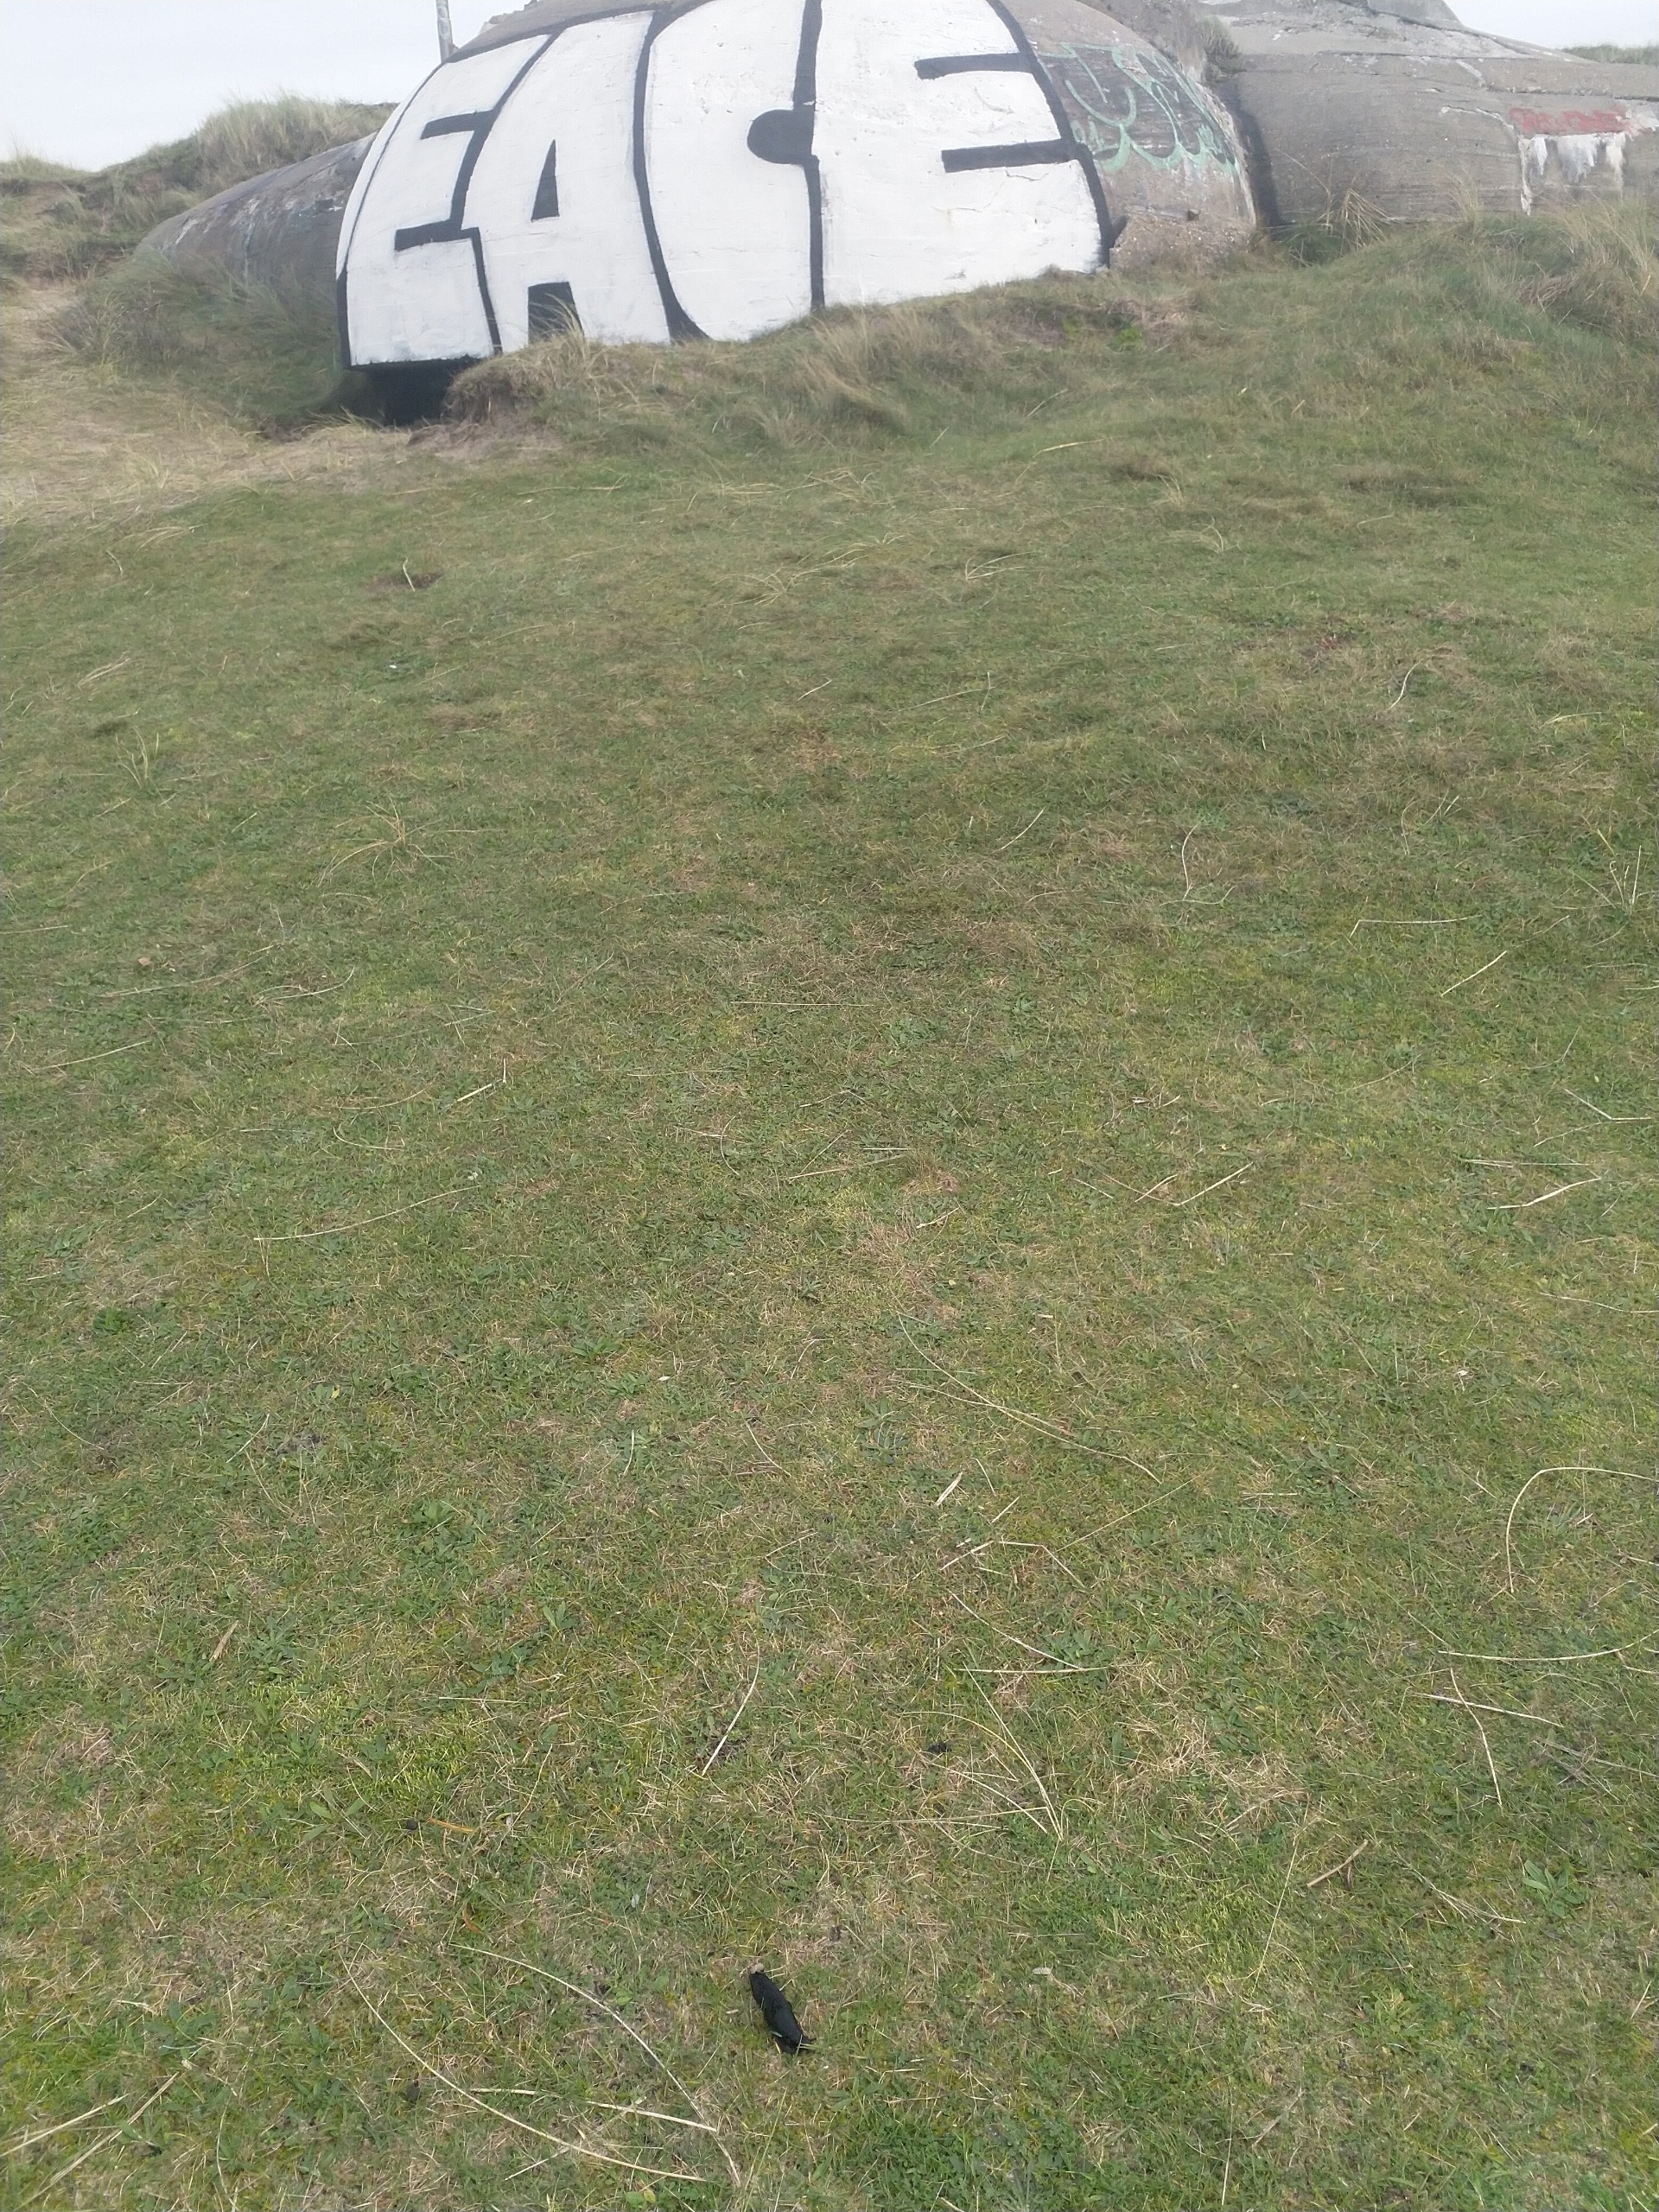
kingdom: Animalia
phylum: Mollusca
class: Gastropoda
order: Stylommatophora
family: Arionidae
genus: Arion
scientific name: Arion ater
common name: Sort skovsnegl
